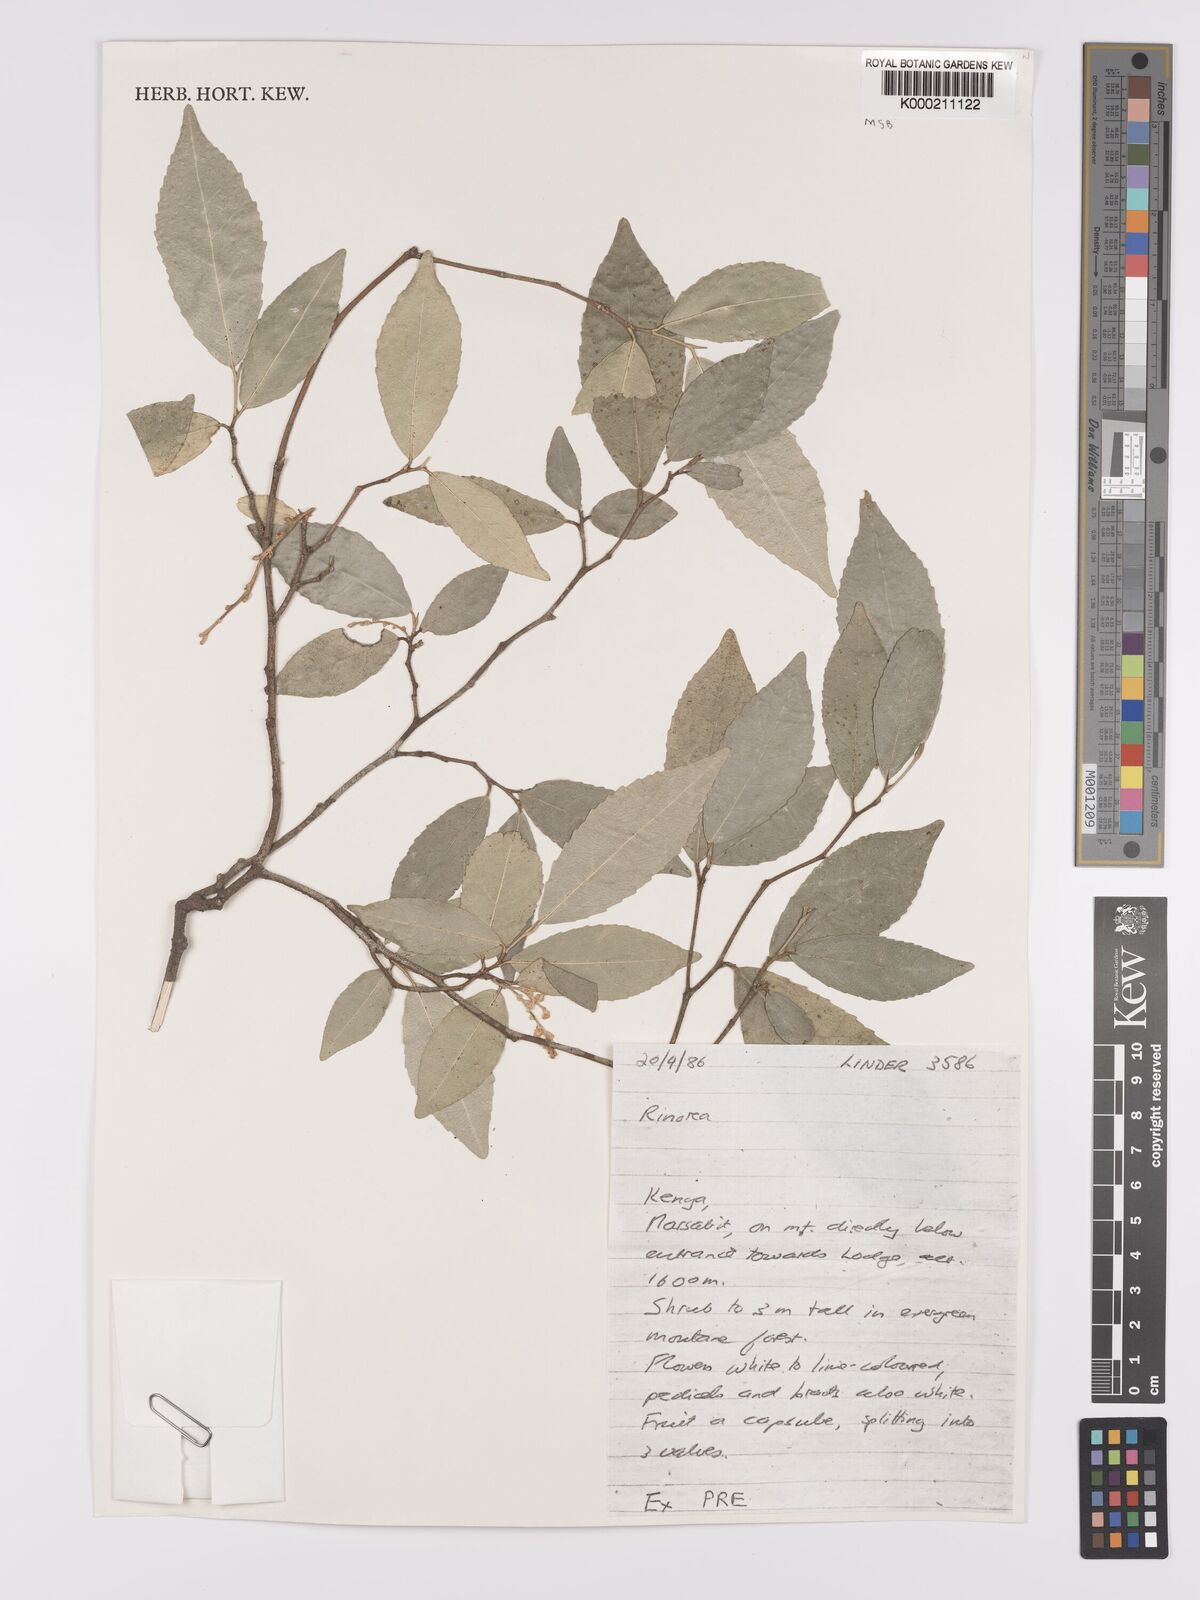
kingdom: Plantae
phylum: Tracheophyta
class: Magnoliopsida
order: Malpighiales
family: Violaceae
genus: Rinorea
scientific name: Rinorea convallarioides
